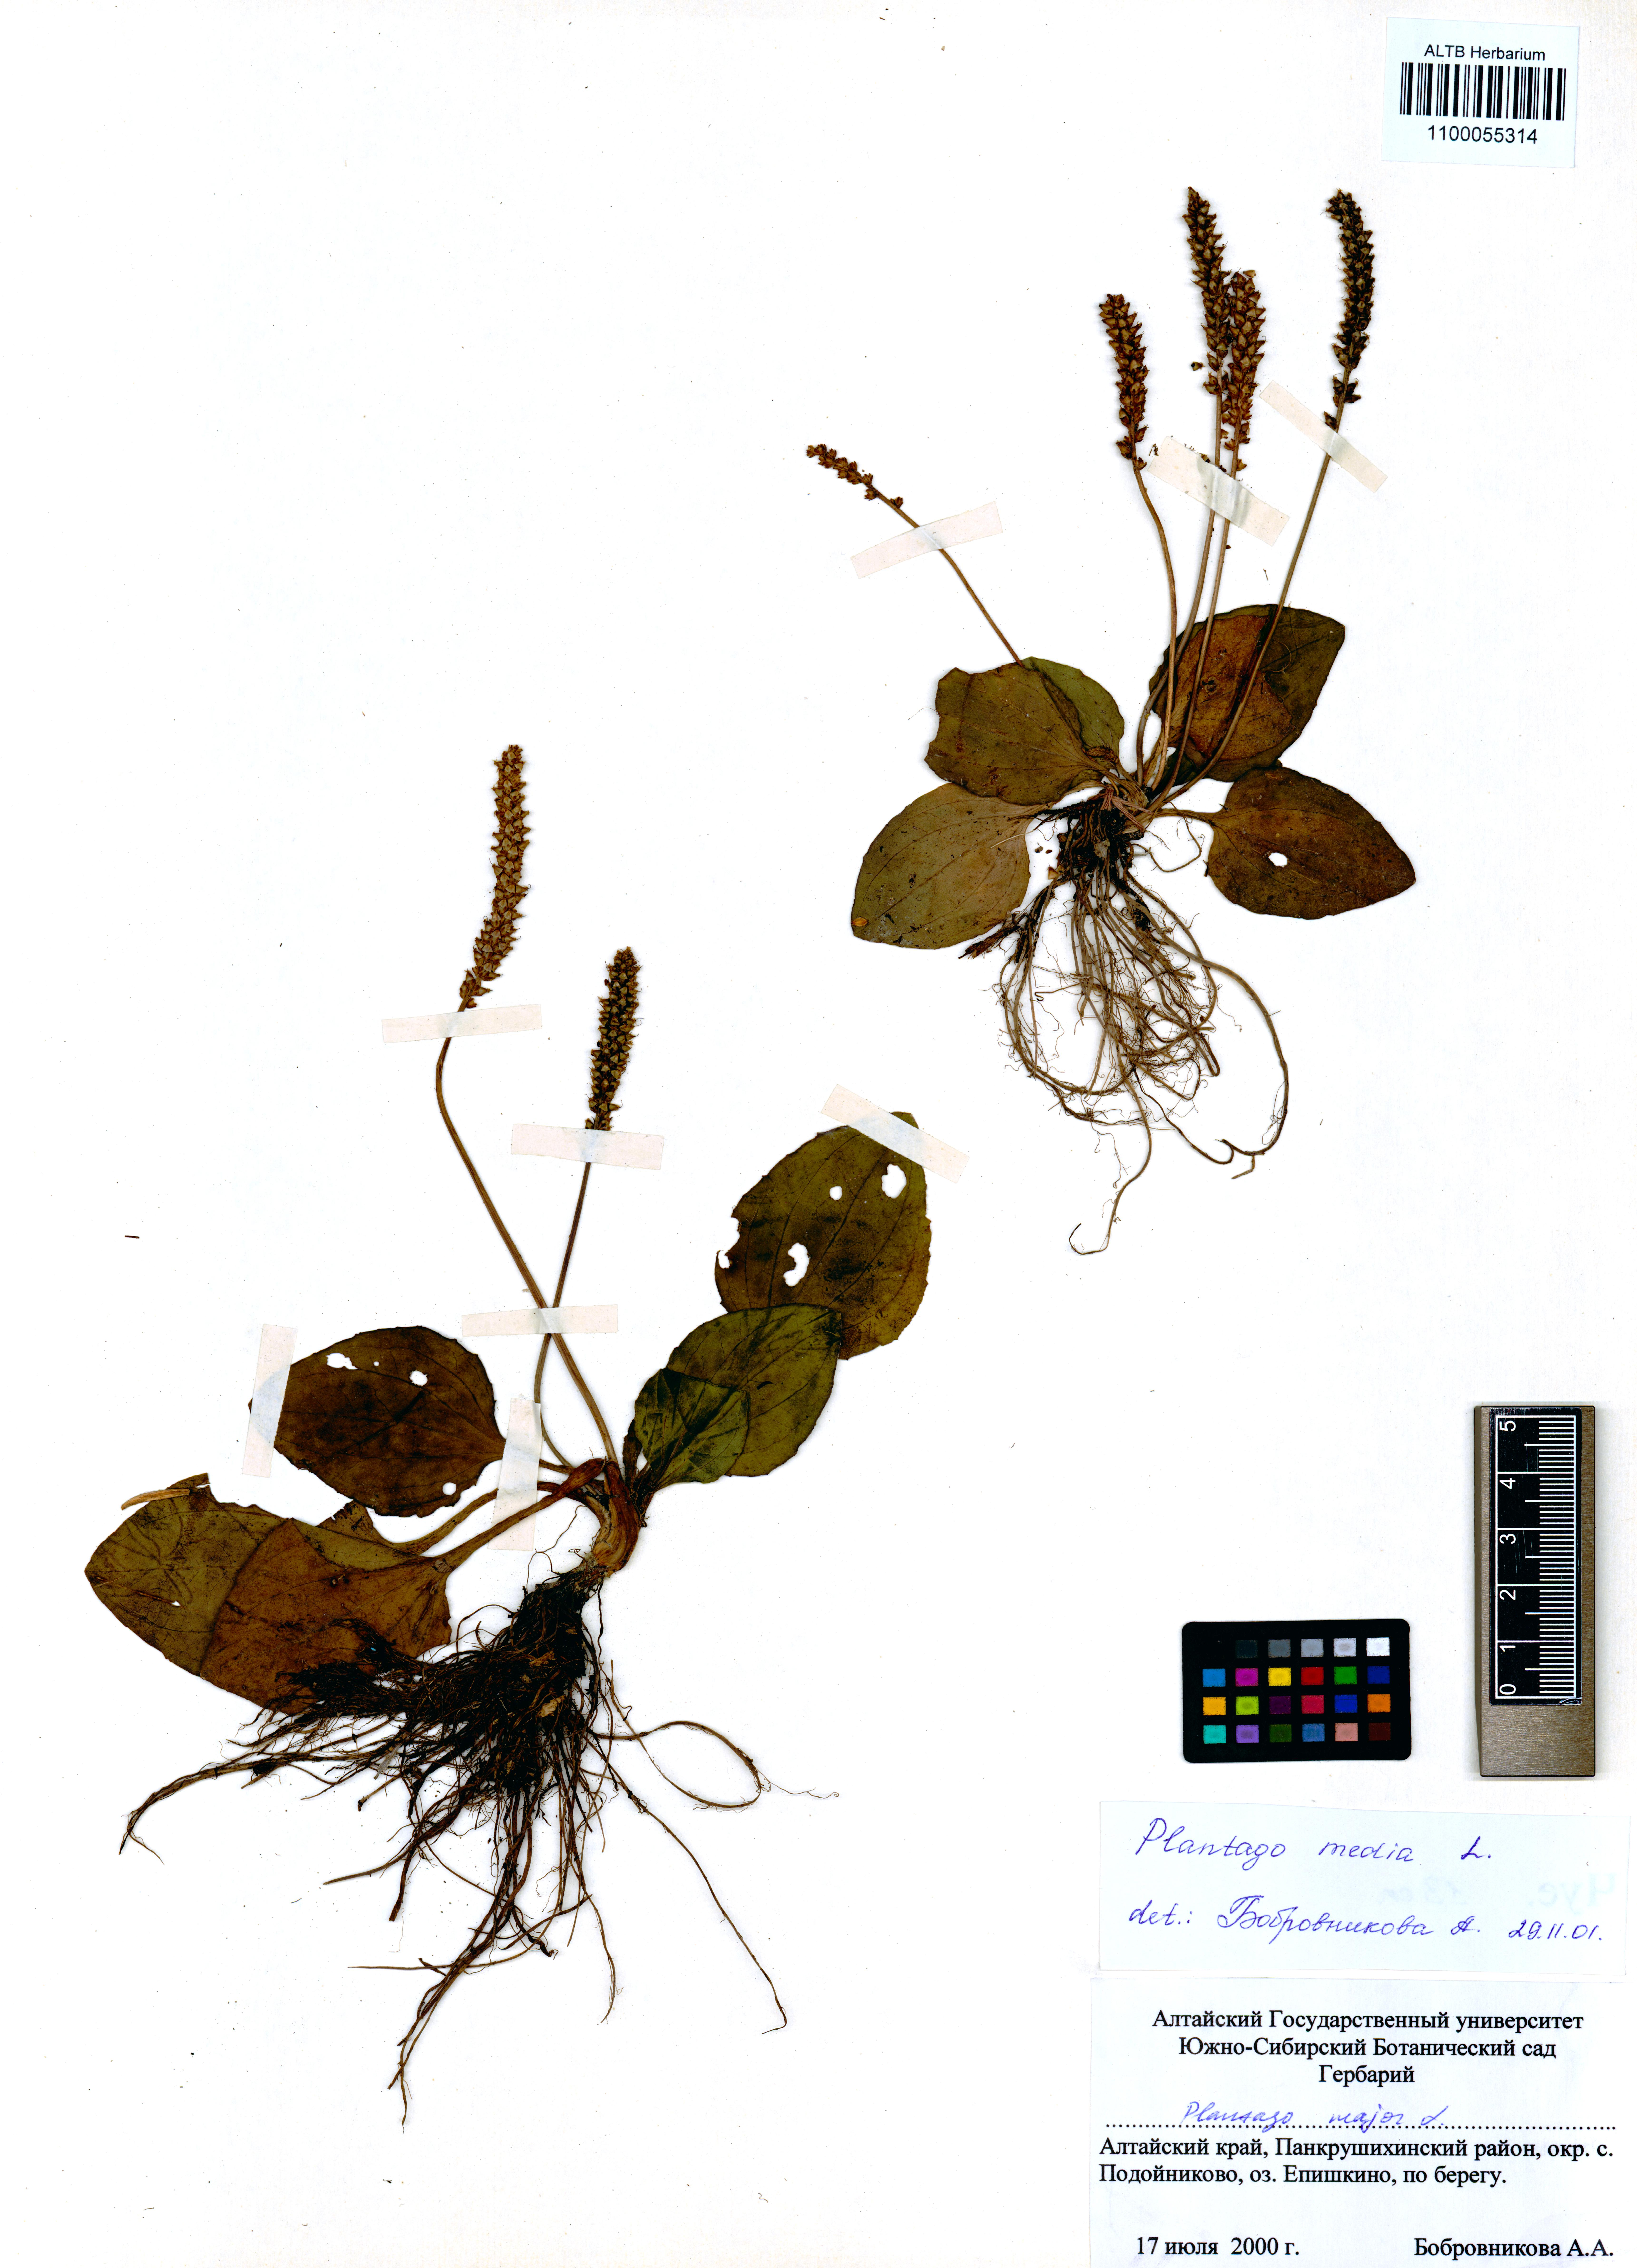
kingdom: Plantae
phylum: Tracheophyta
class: Magnoliopsida
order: Lamiales
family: Plantaginaceae
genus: Plantago
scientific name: Plantago media
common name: Hoary plantain
